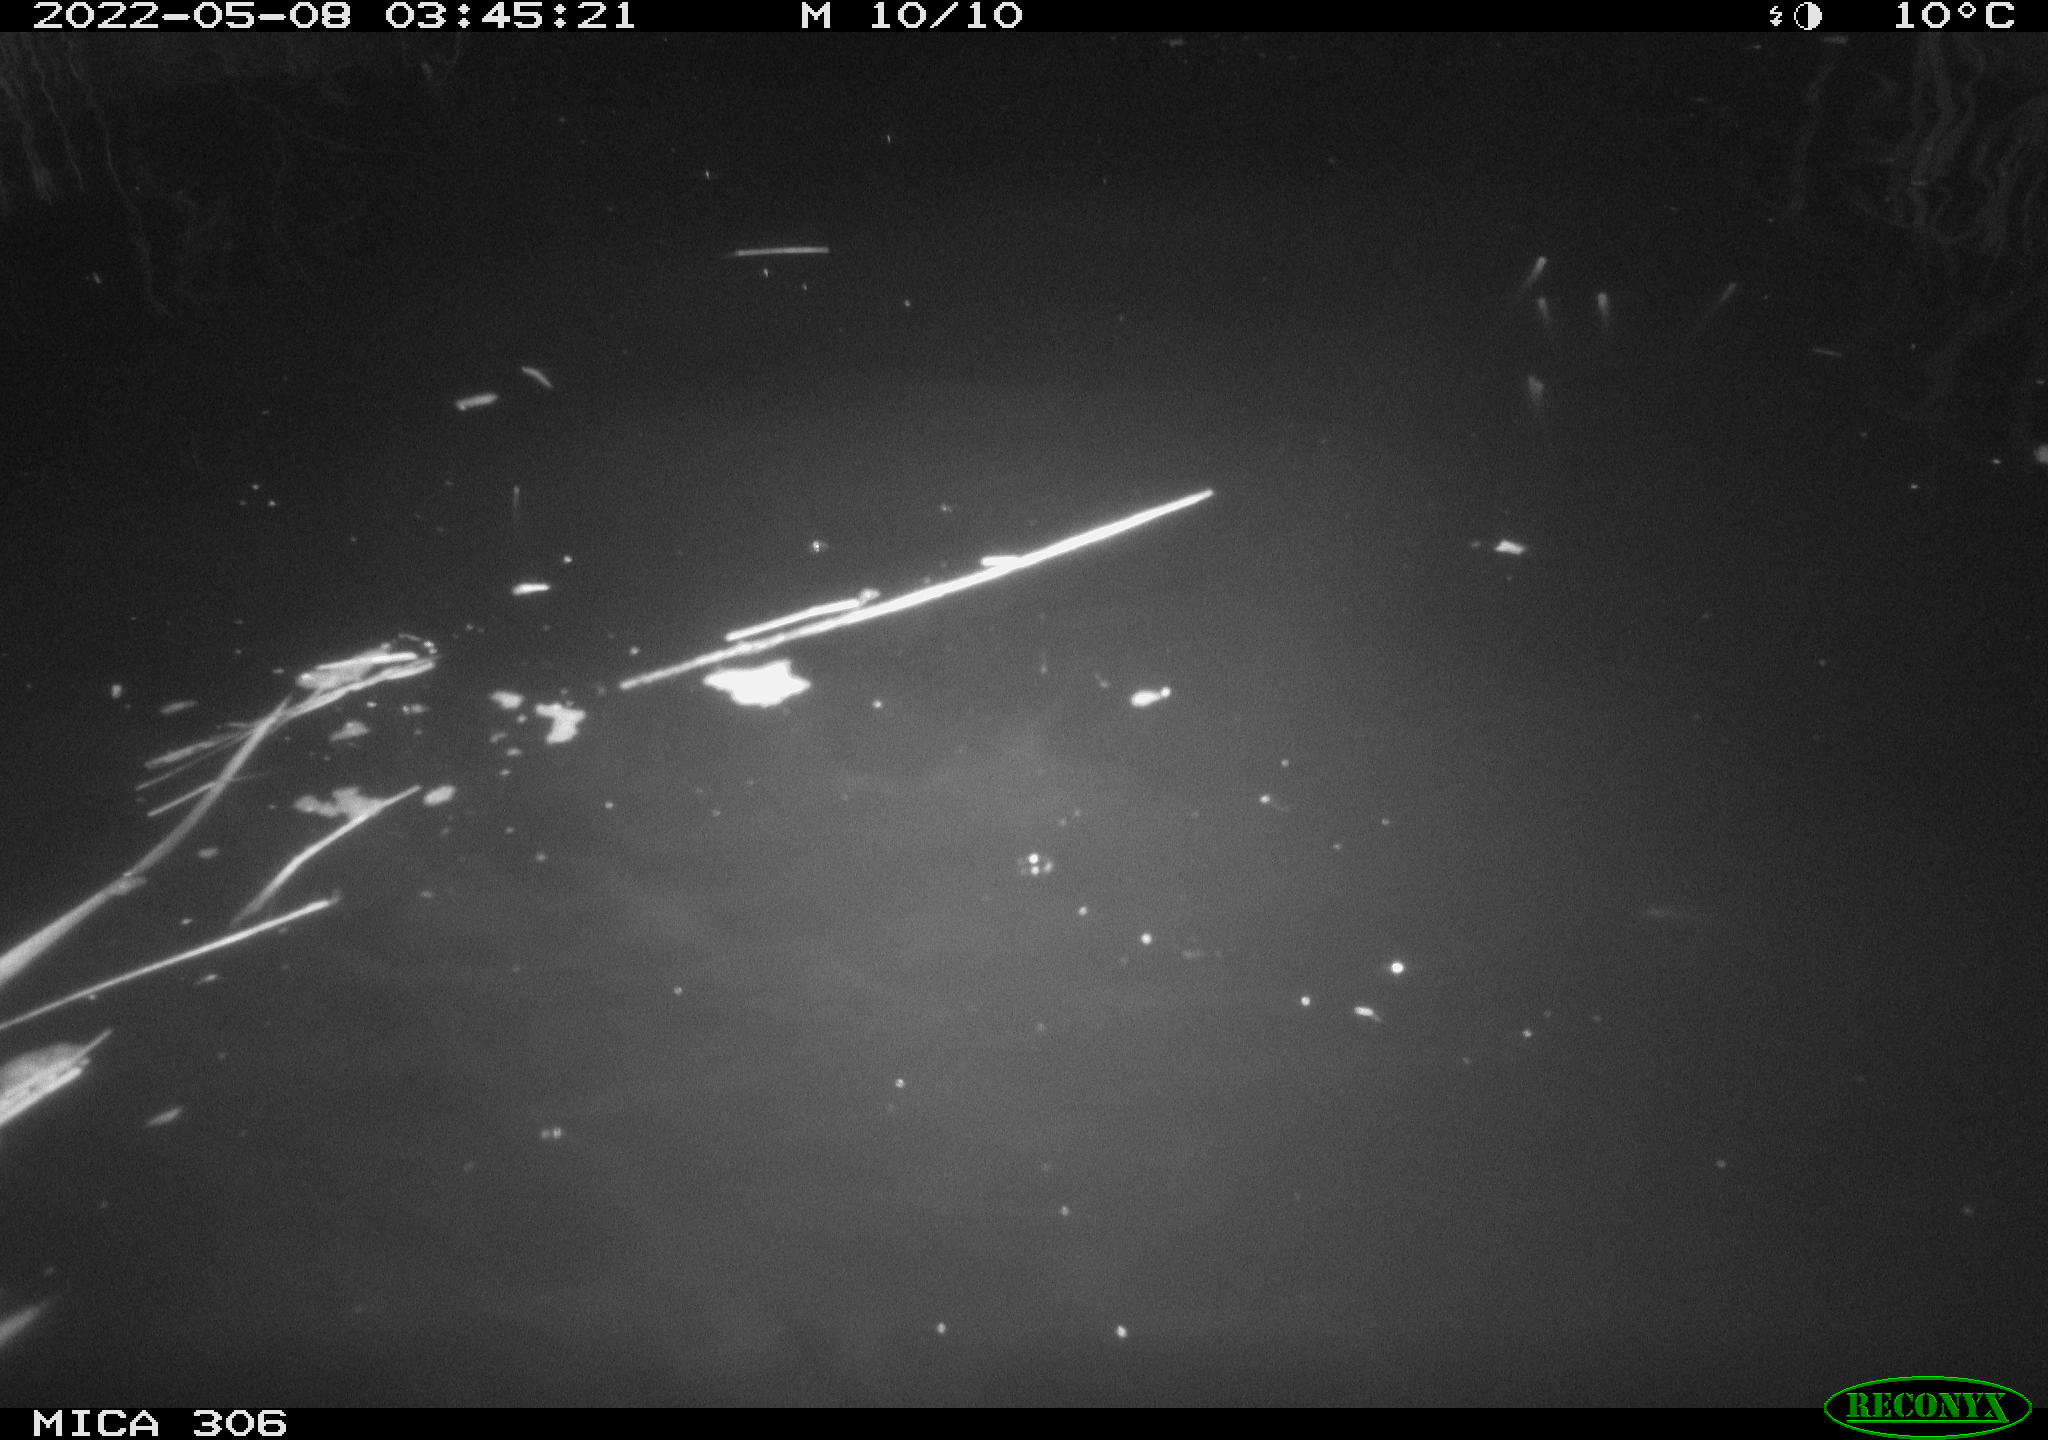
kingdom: Animalia
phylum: Chordata
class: Mammalia
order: Rodentia
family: Cricetidae
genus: Ondatra
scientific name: Ondatra zibethicus
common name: Muskrat
